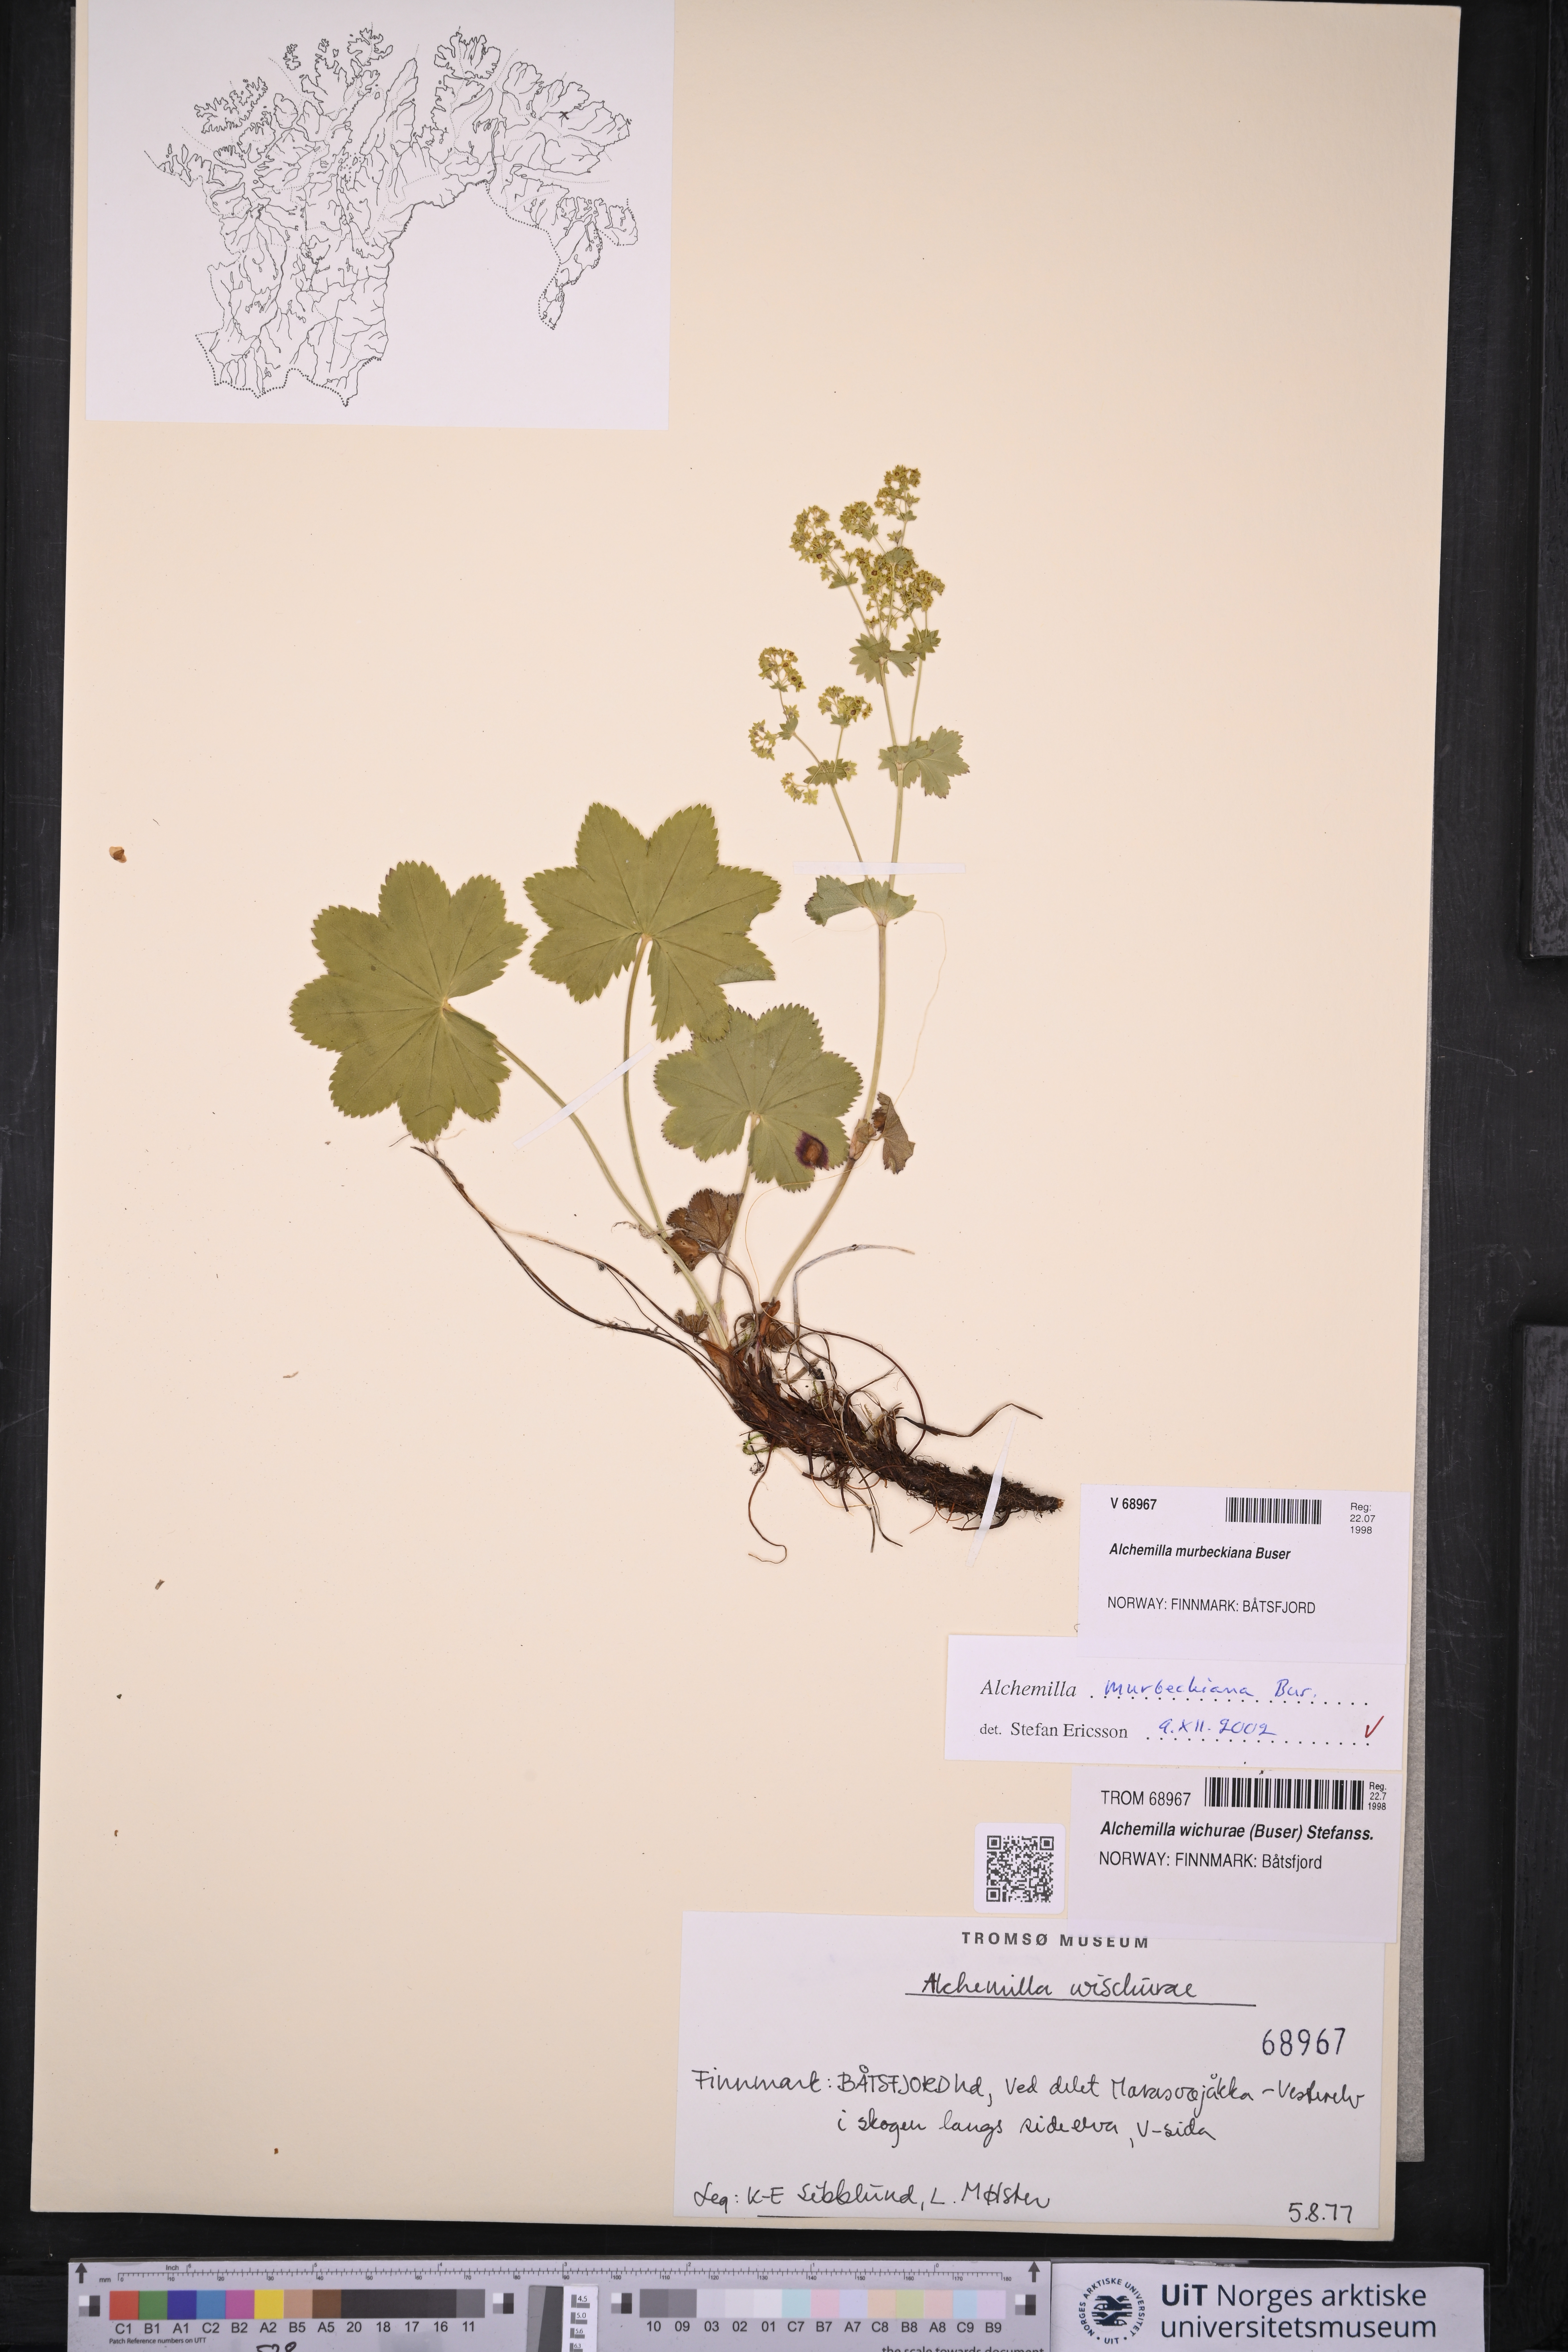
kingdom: Plantae
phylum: Tracheophyta
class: Magnoliopsida
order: Rosales
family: Rosaceae
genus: Alchemilla
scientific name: Alchemilla murbeckiana
